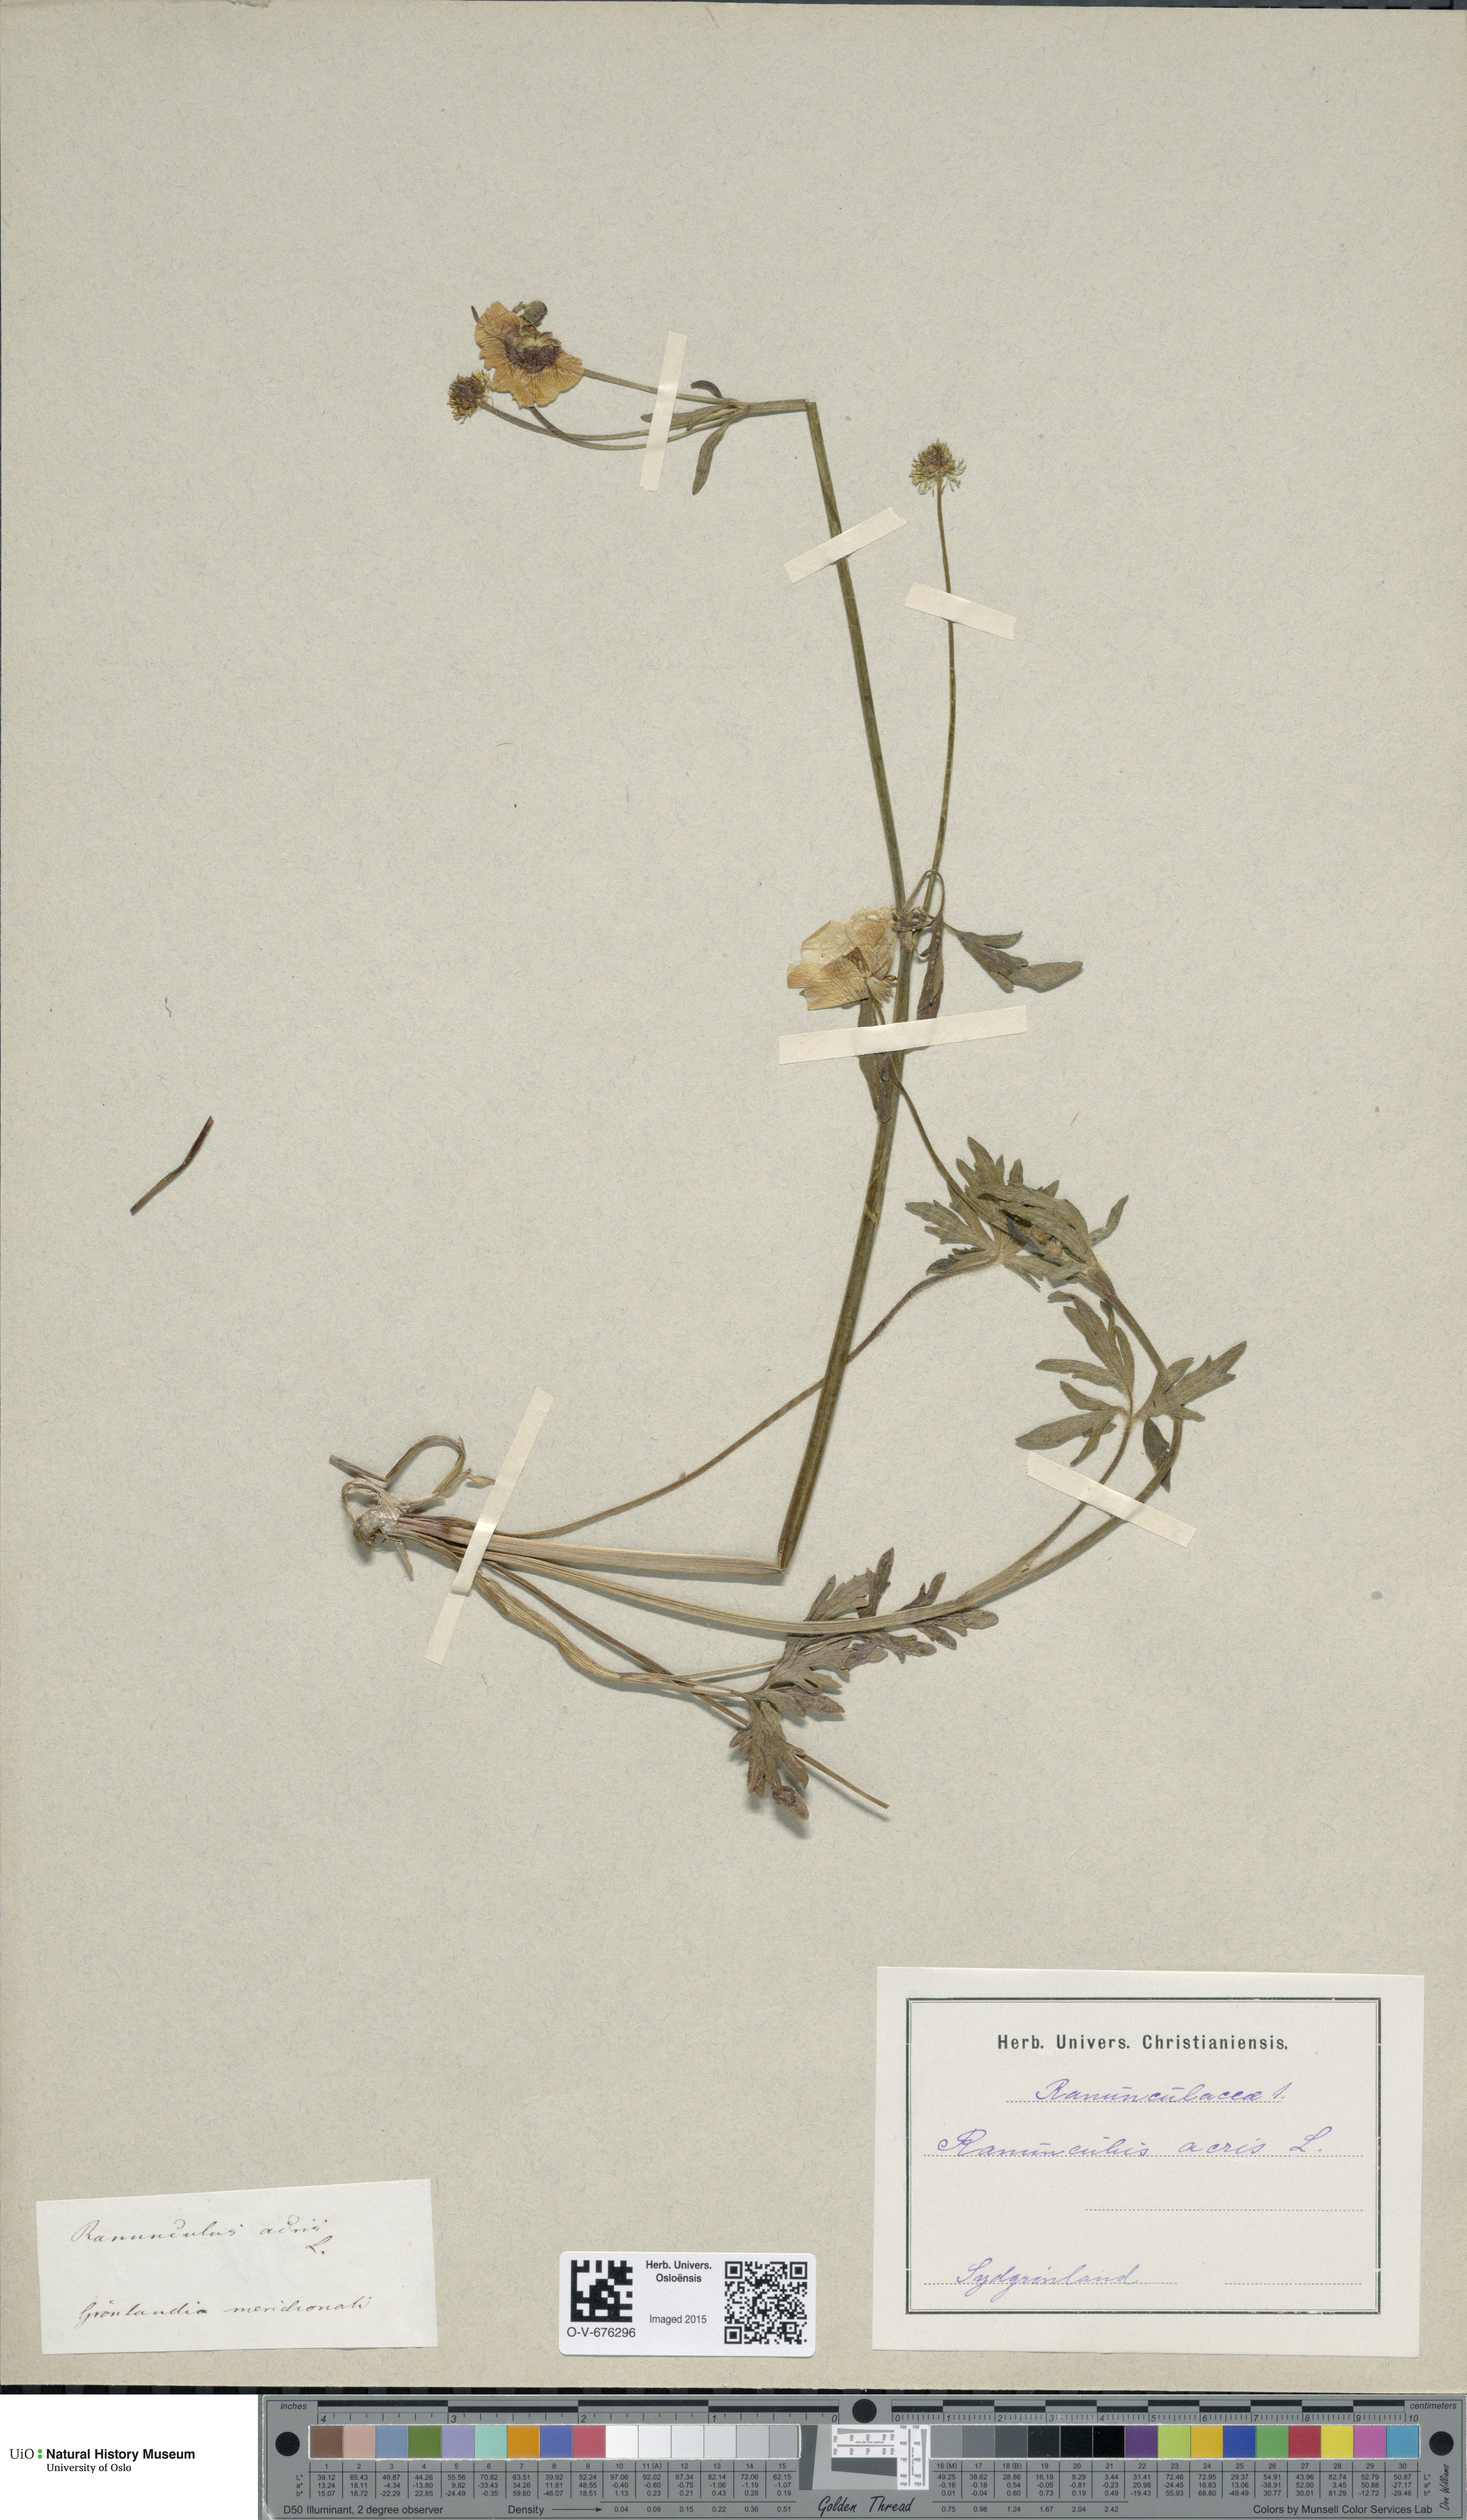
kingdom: Plantae
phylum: Tracheophyta
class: Magnoliopsida
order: Ranunculales
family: Ranunculaceae
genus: Ranunculus
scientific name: Ranunculus acris
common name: Meadow buttercup
